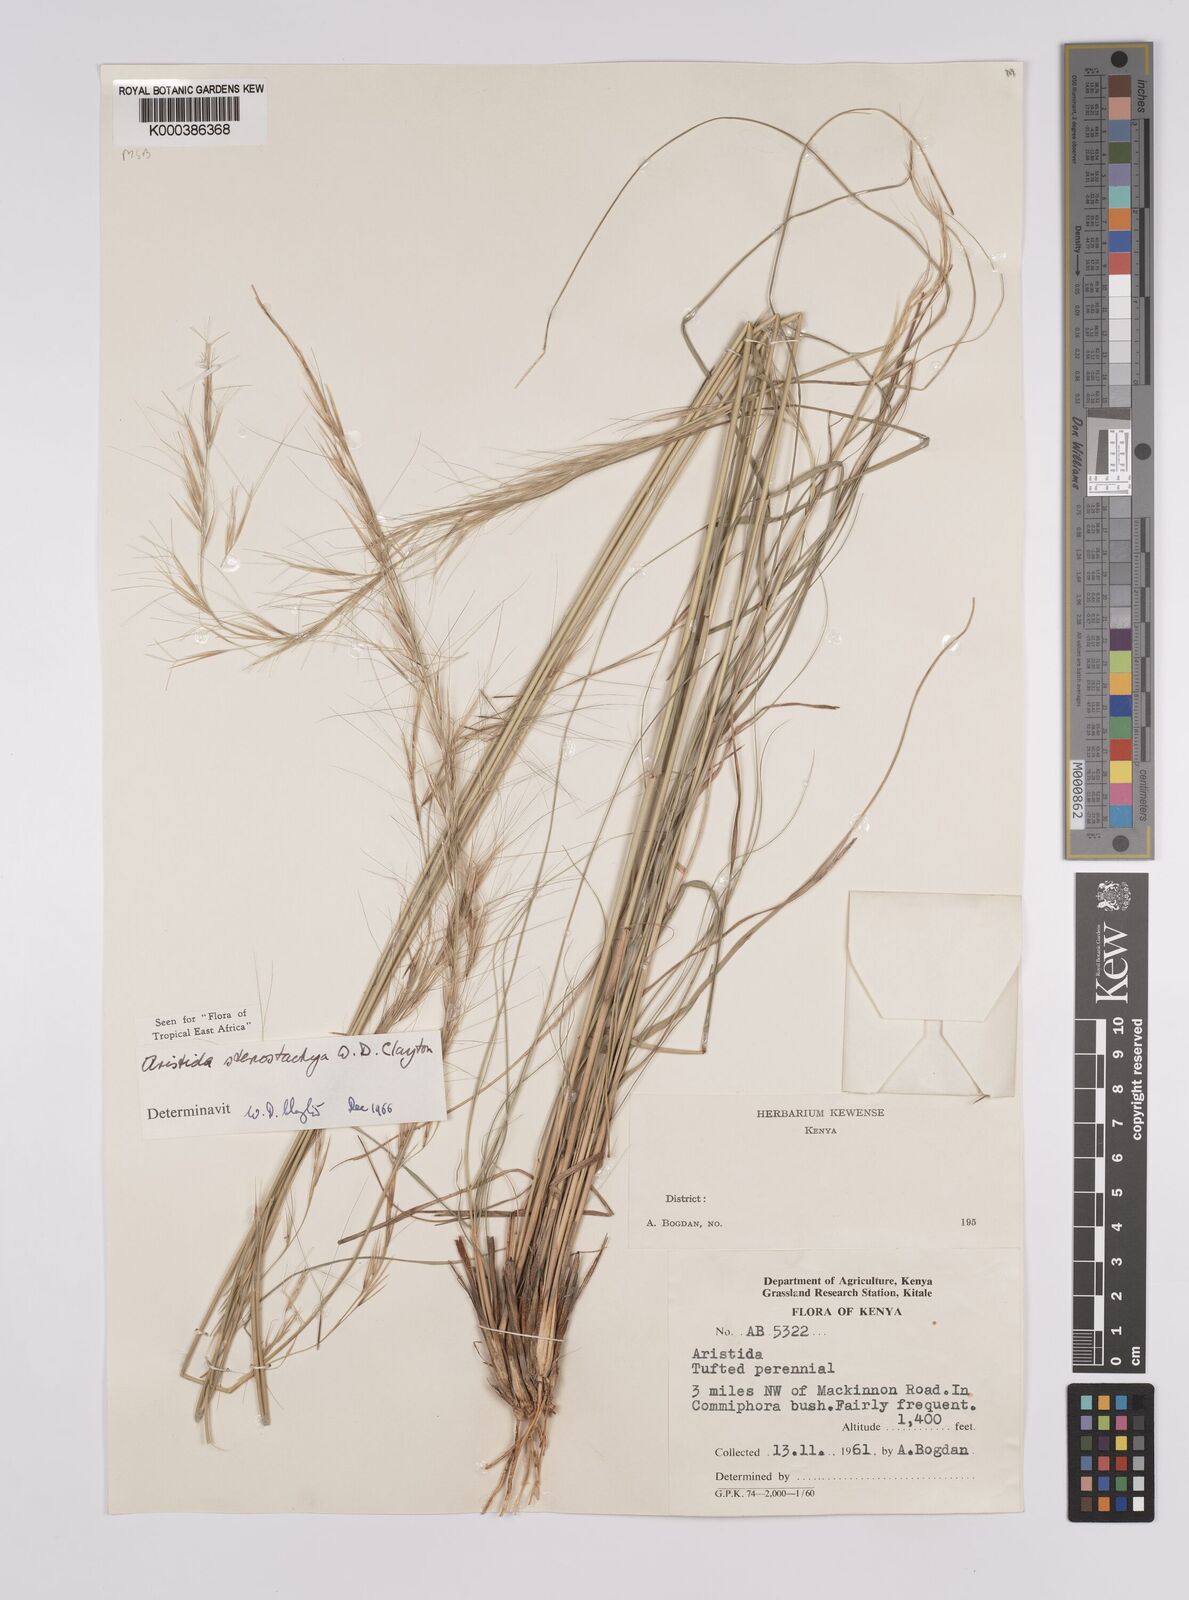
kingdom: Plantae
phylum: Tracheophyta
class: Liliopsida
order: Poales
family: Poaceae
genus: Aristida
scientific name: Aristida stenostachya
